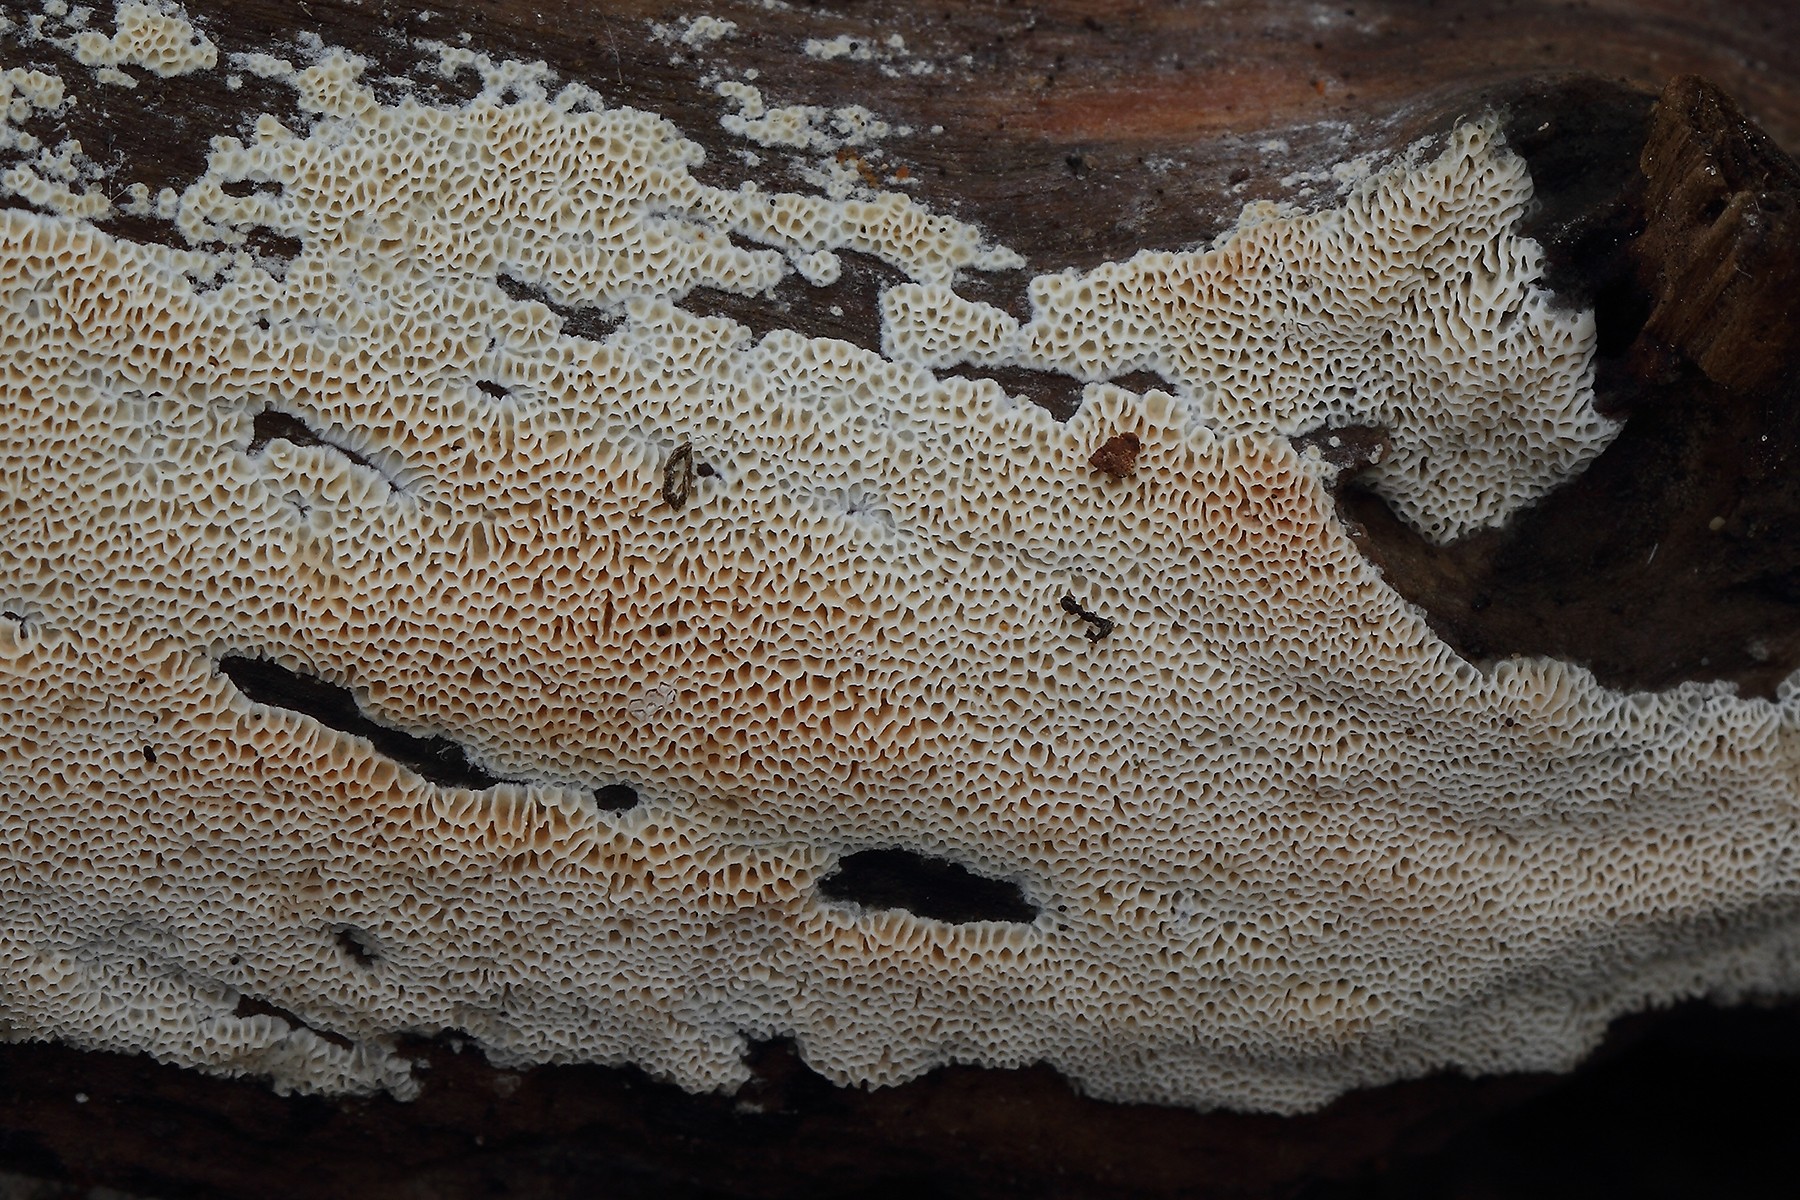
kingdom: Fungi
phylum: Basidiomycota
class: Agaricomycetes
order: Polyporales
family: Cerrenaceae
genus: Raduliporus
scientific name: Raduliporus aneirinus
